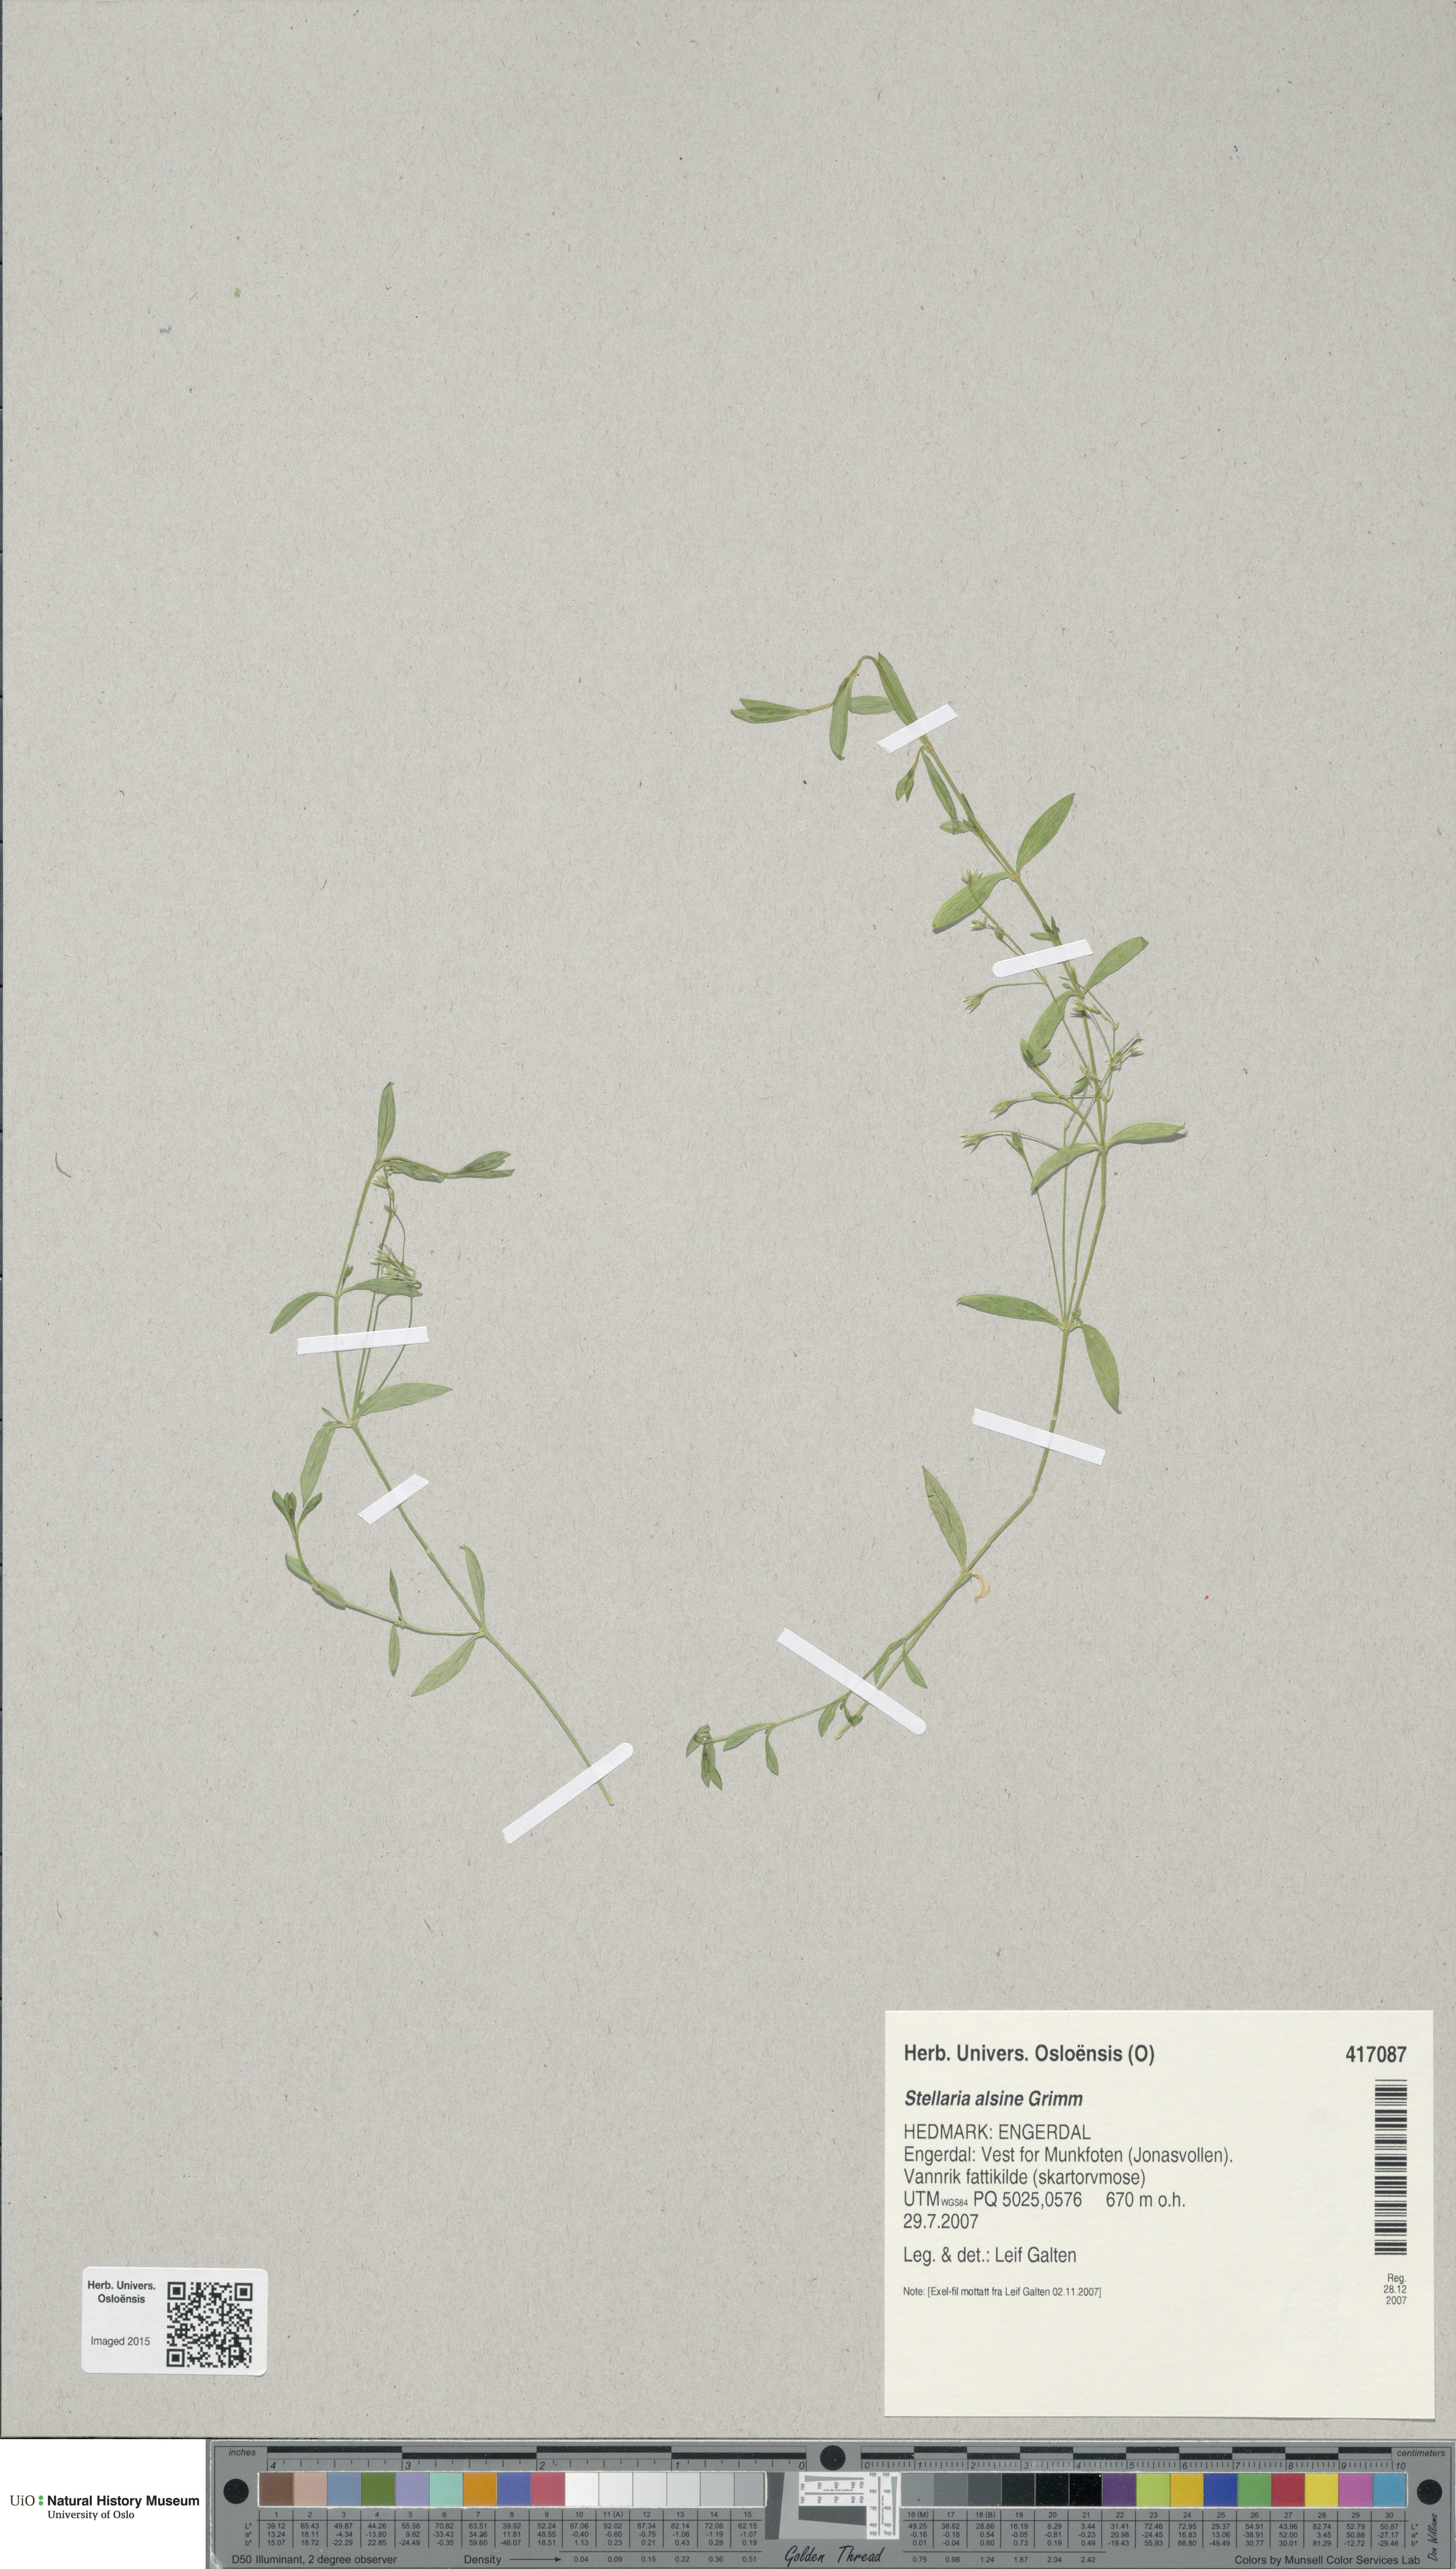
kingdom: Plantae
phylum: Tracheophyta
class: Magnoliopsida
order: Caryophyllales
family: Caryophyllaceae
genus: Stellaria
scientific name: Stellaria alsine
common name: Bog stitchwort
